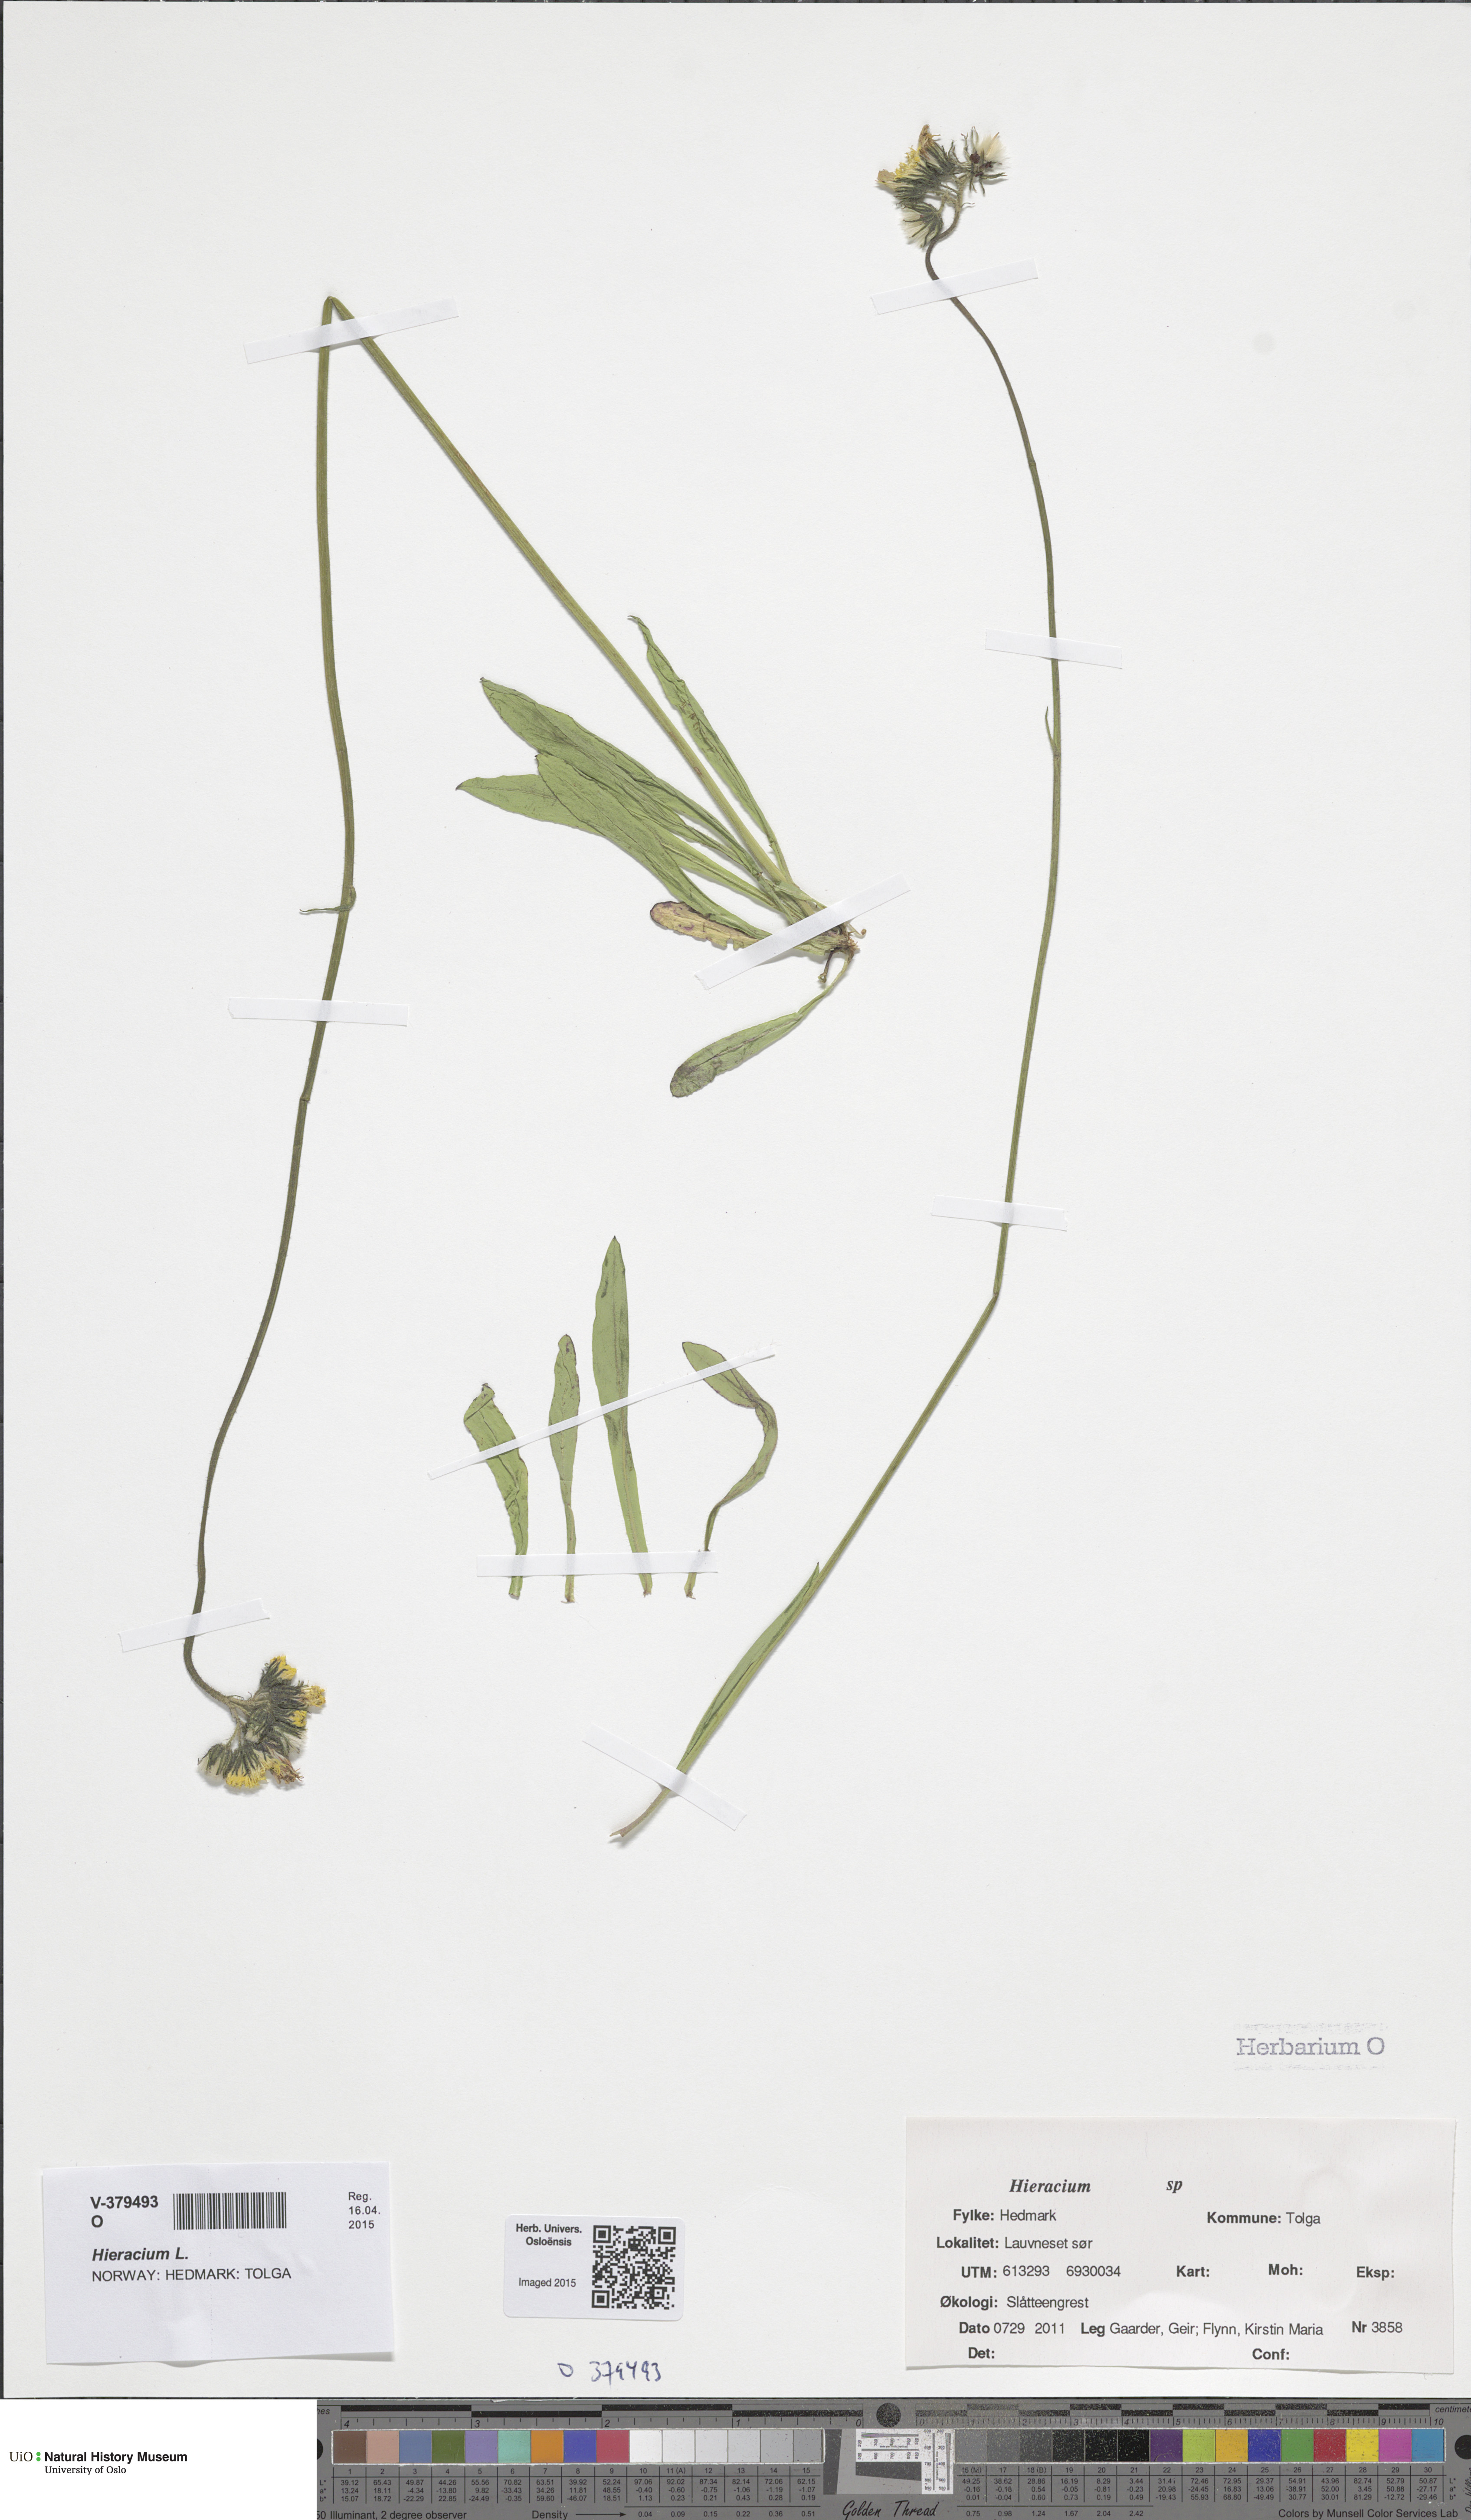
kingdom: Plantae
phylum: Tracheophyta
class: Magnoliopsida
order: Asterales
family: Asteraceae
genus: Hieracium
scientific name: Hieracium
